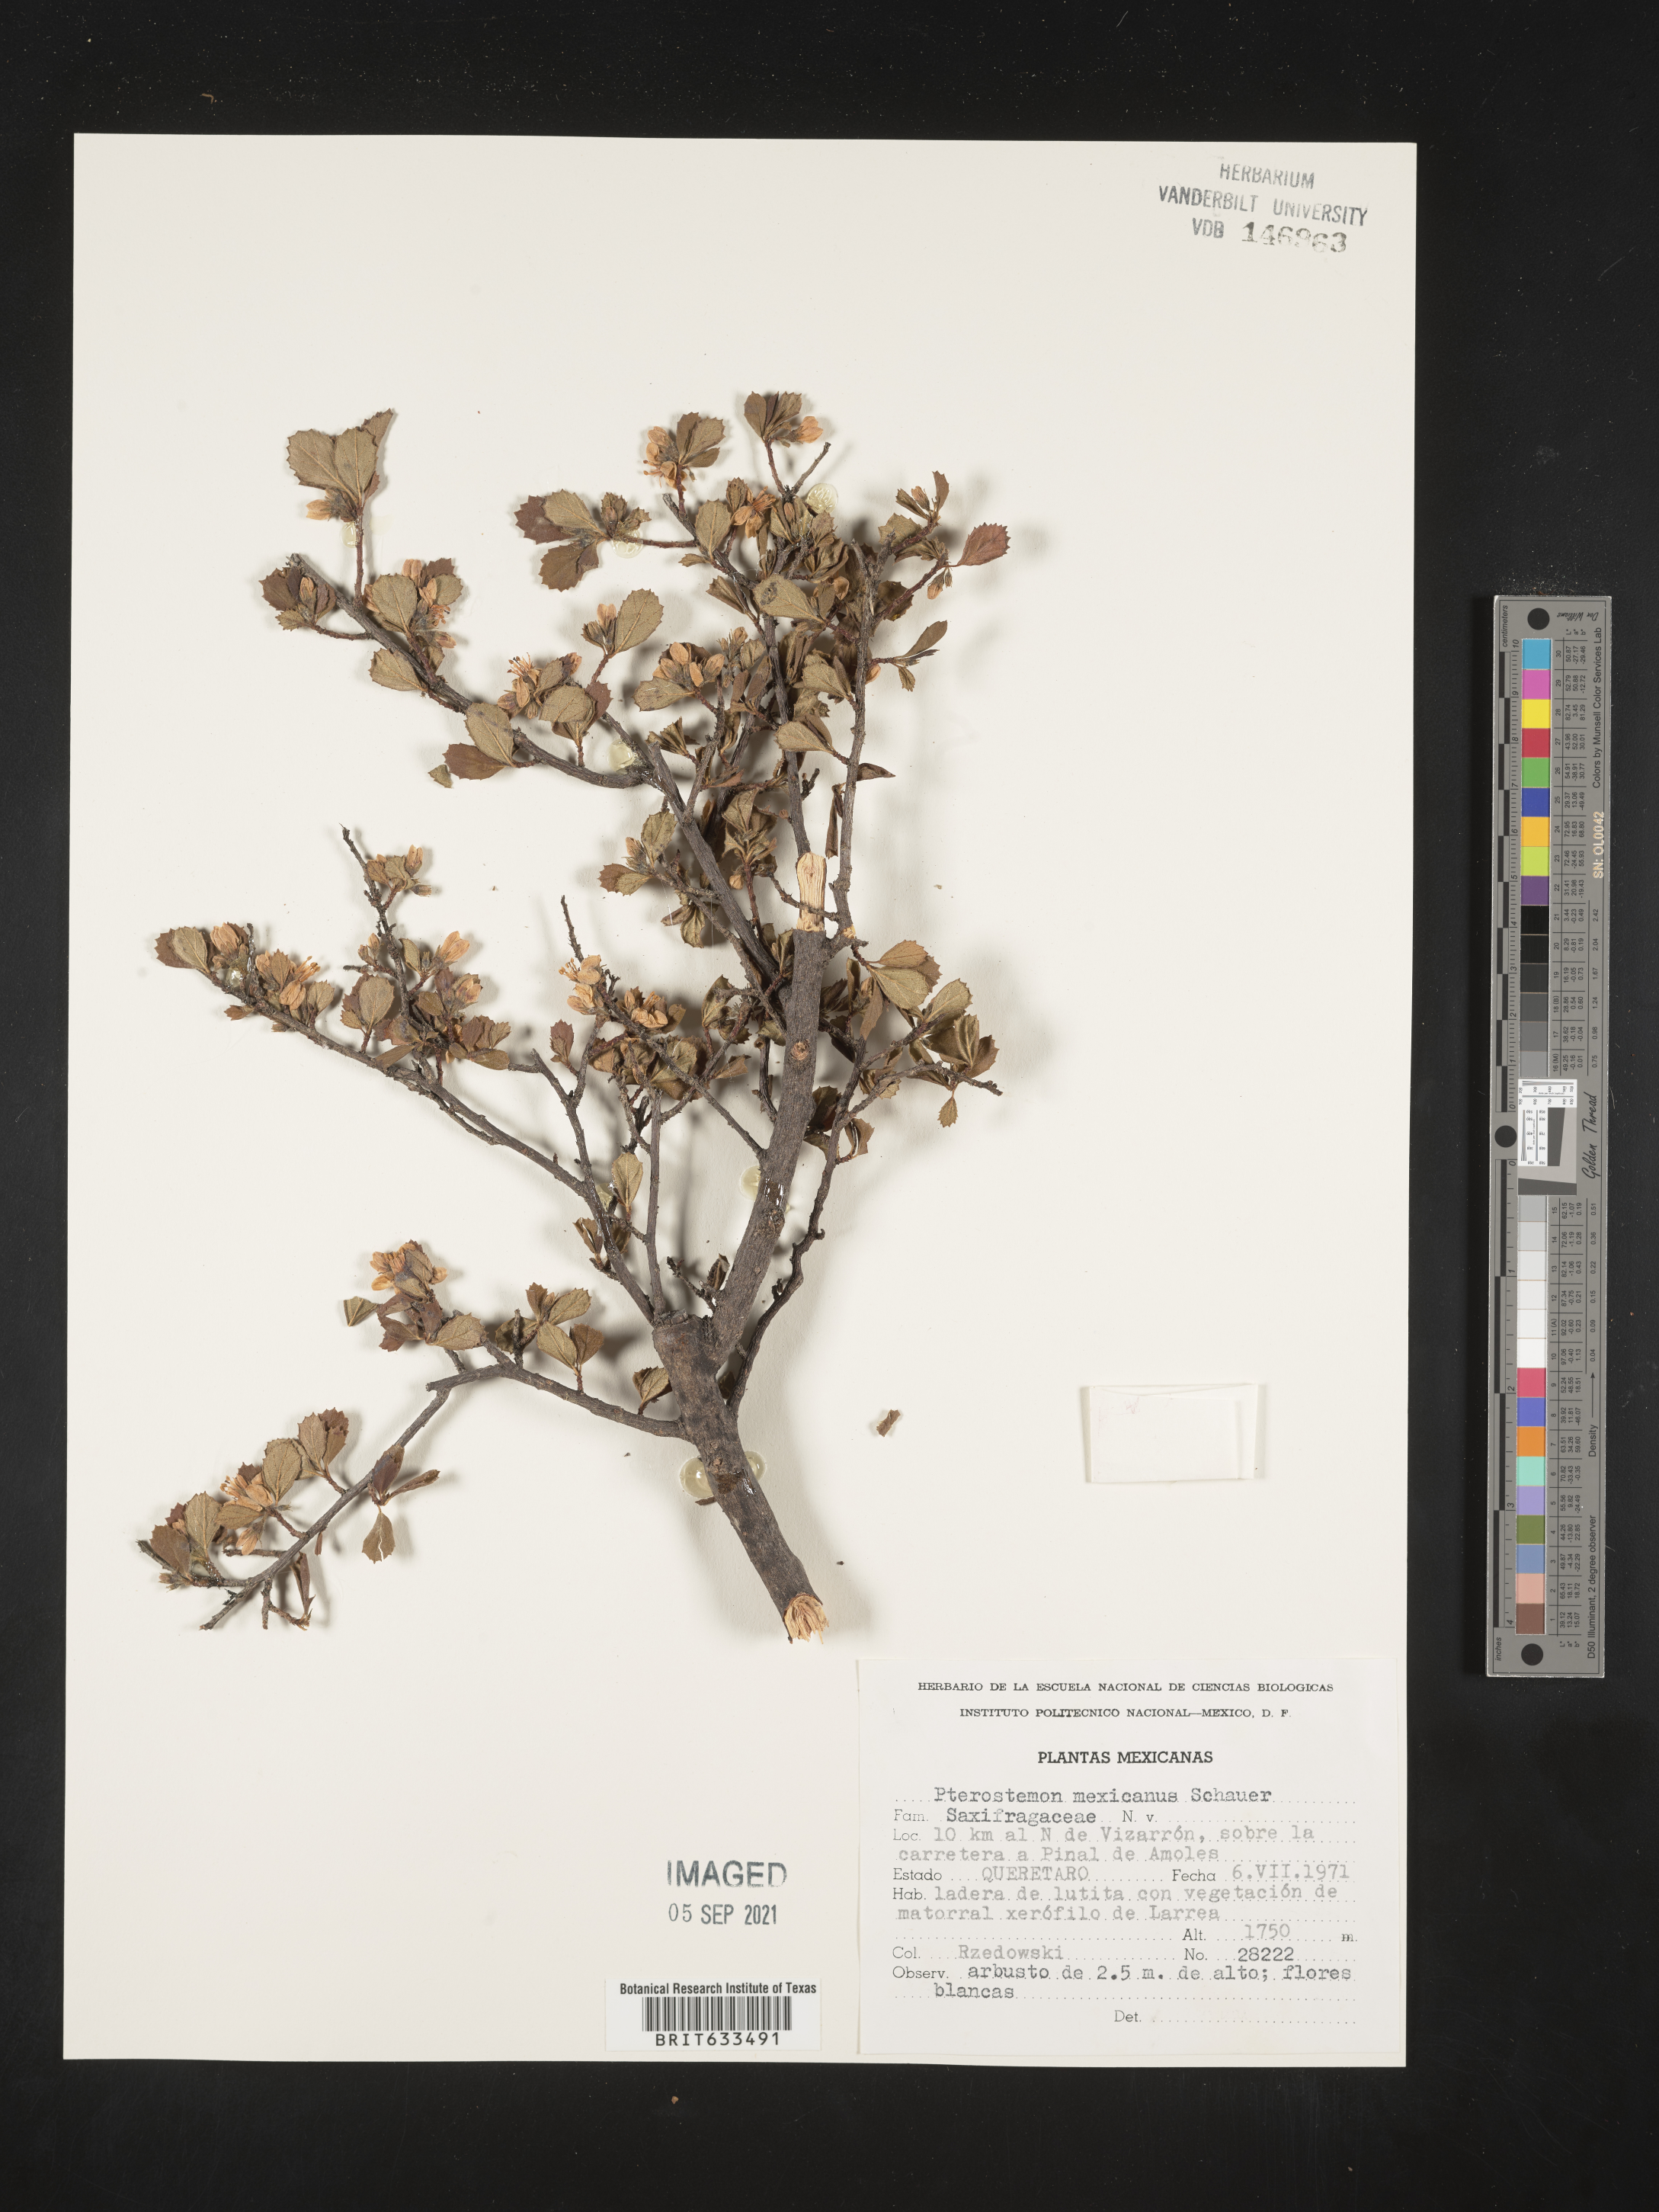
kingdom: Plantae
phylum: Tracheophyta
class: Magnoliopsida
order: Saxifragales
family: Iteaceae
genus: Pterostemon
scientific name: Pterostemon mexicanus
